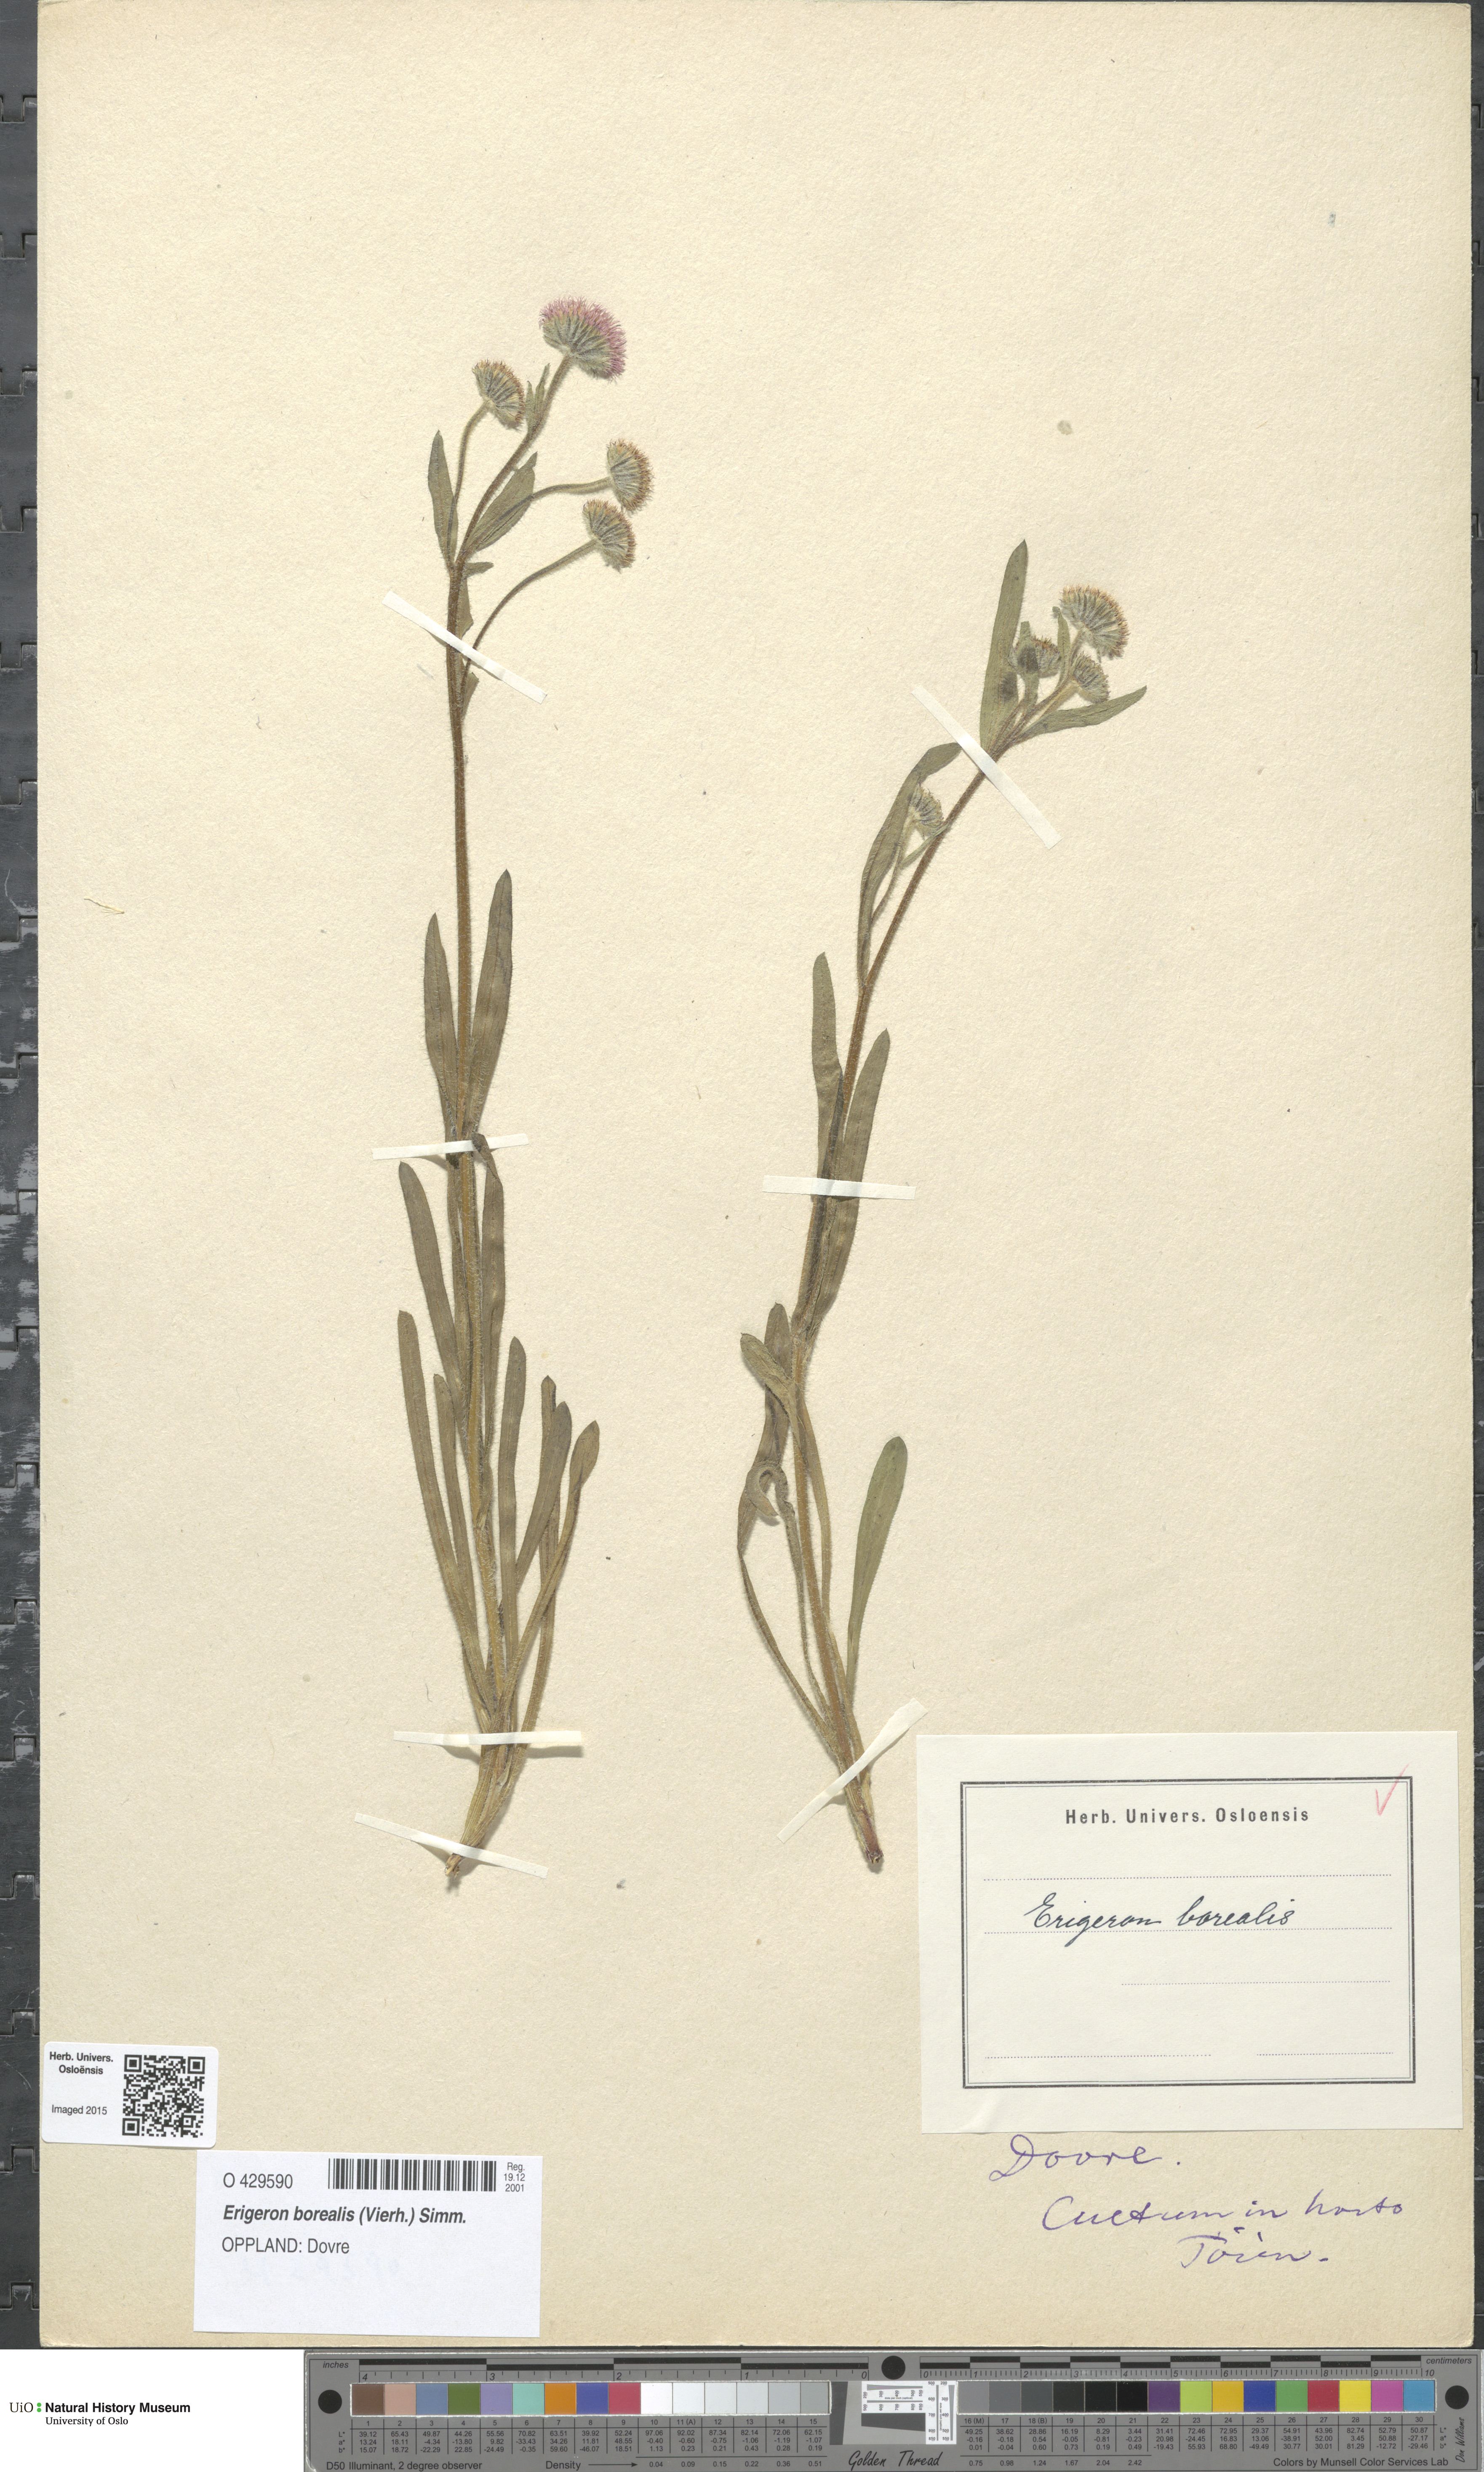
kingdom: Plantae
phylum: Tracheophyta
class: Magnoliopsida
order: Asterales
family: Asteraceae
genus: Erigeron
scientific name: Erigeron borealis
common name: Alpine fleabane
